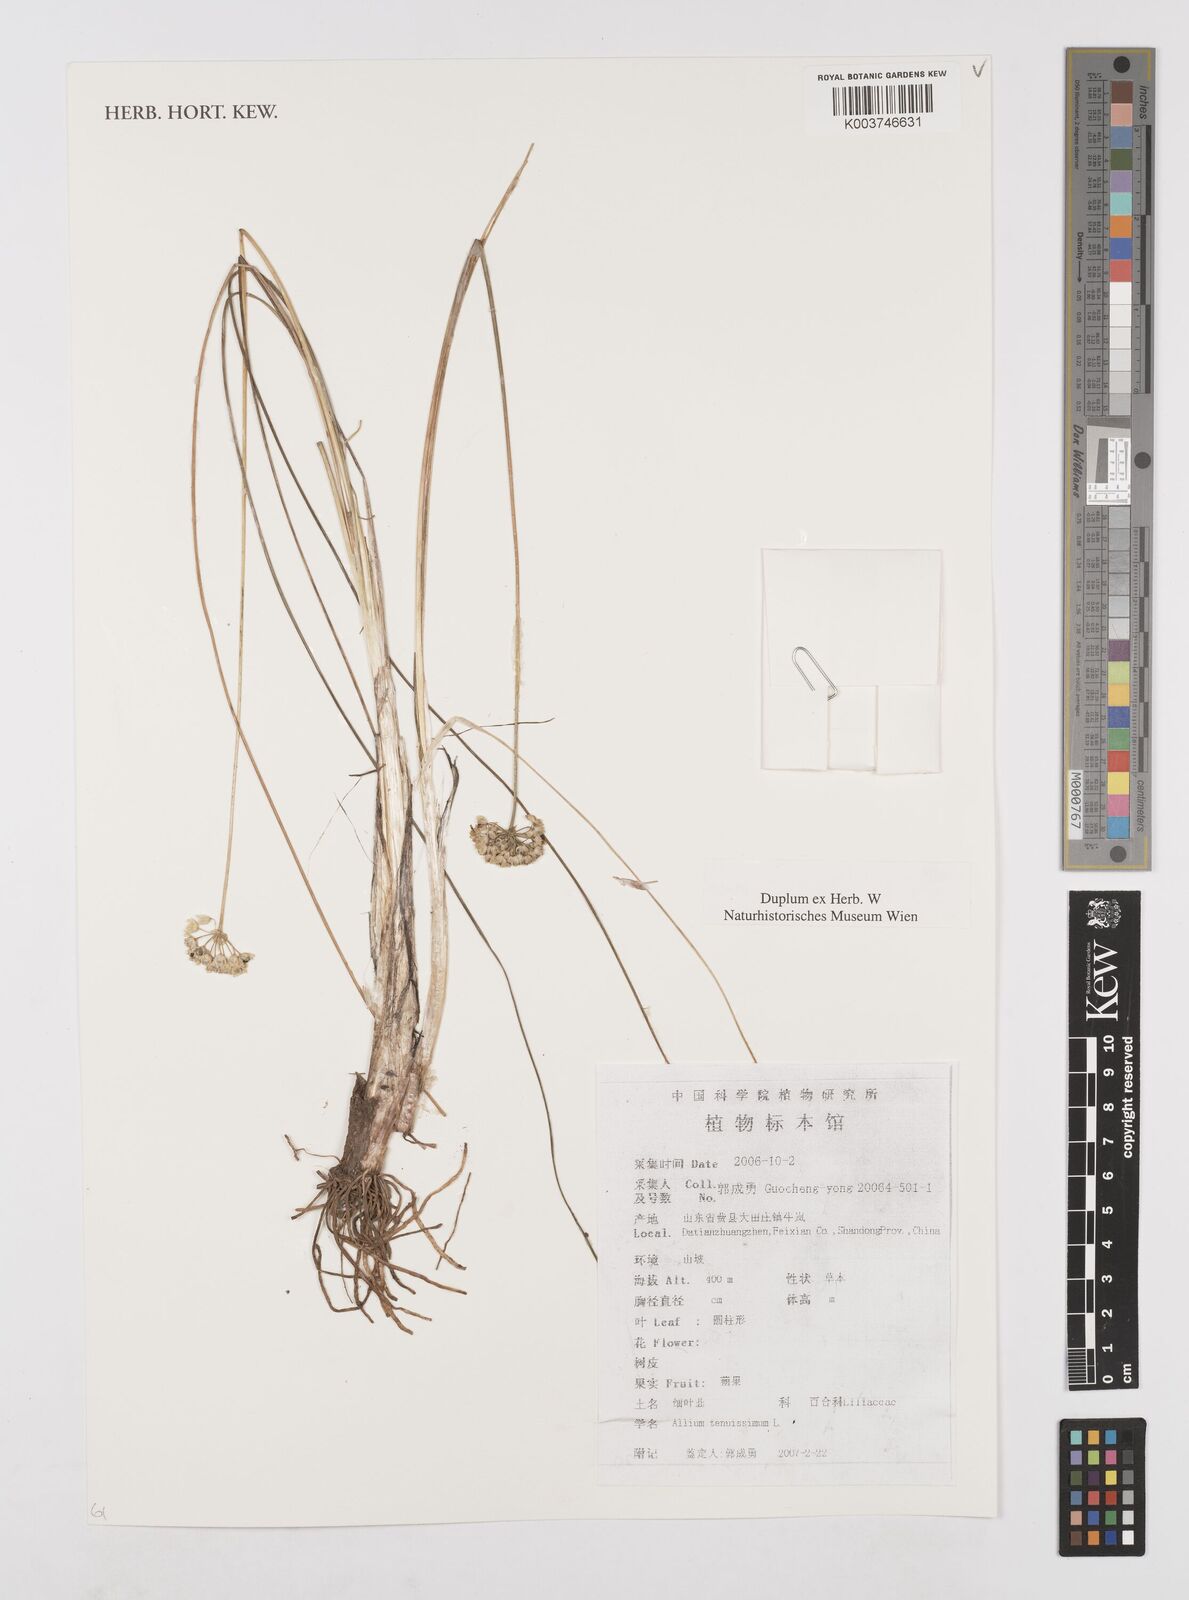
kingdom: Plantae
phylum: Tracheophyta
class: Liliopsida
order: Asparagales
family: Amaryllidaceae
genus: Allium
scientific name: Allium tenuissimum
